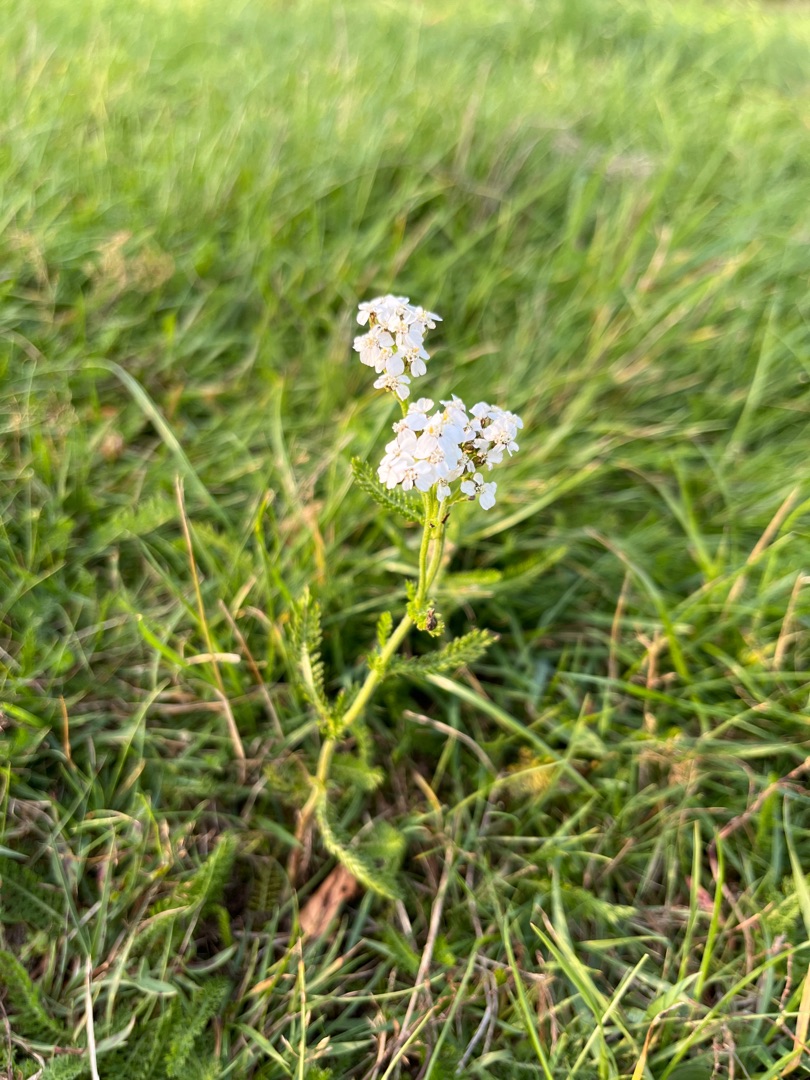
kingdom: Plantae
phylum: Tracheophyta
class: Magnoliopsida
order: Asterales
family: Asteraceae
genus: Achillea
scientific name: Achillea millefolium
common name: Almindelig røllike
